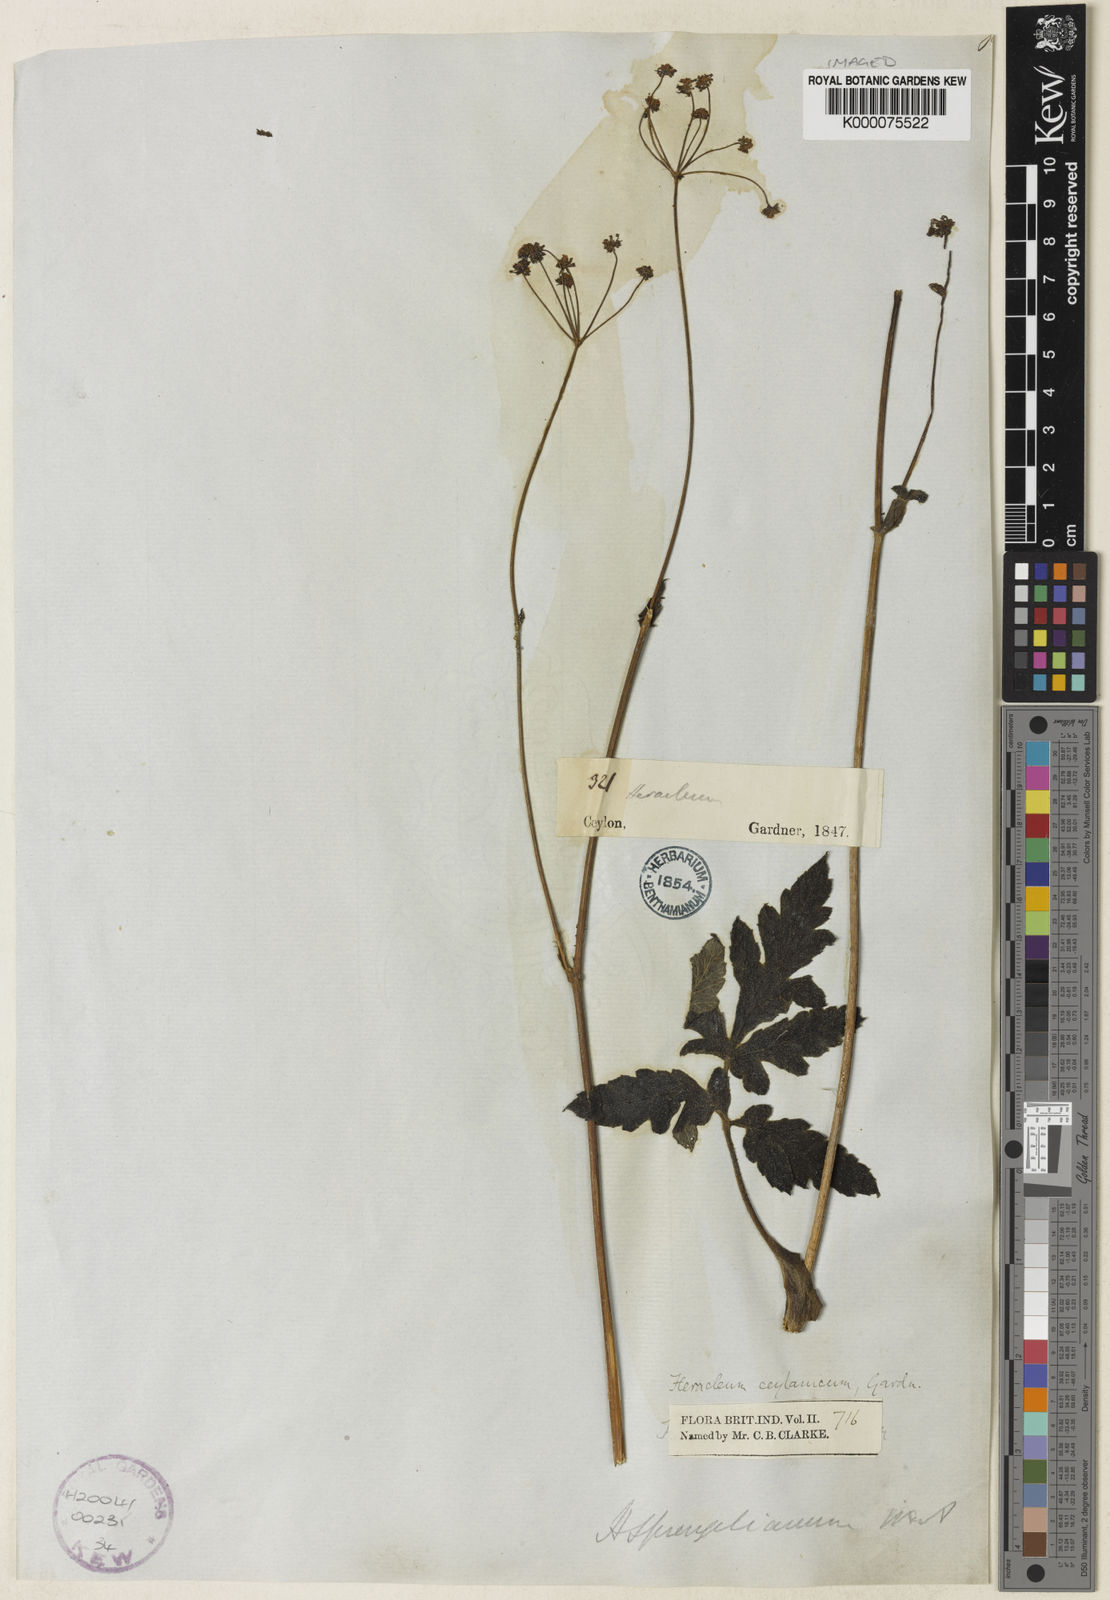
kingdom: Plantae
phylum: Tracheophyta
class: Magnoliopsida
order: Apiales
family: Apiaceae
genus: Heracleum
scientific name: Heracleum
